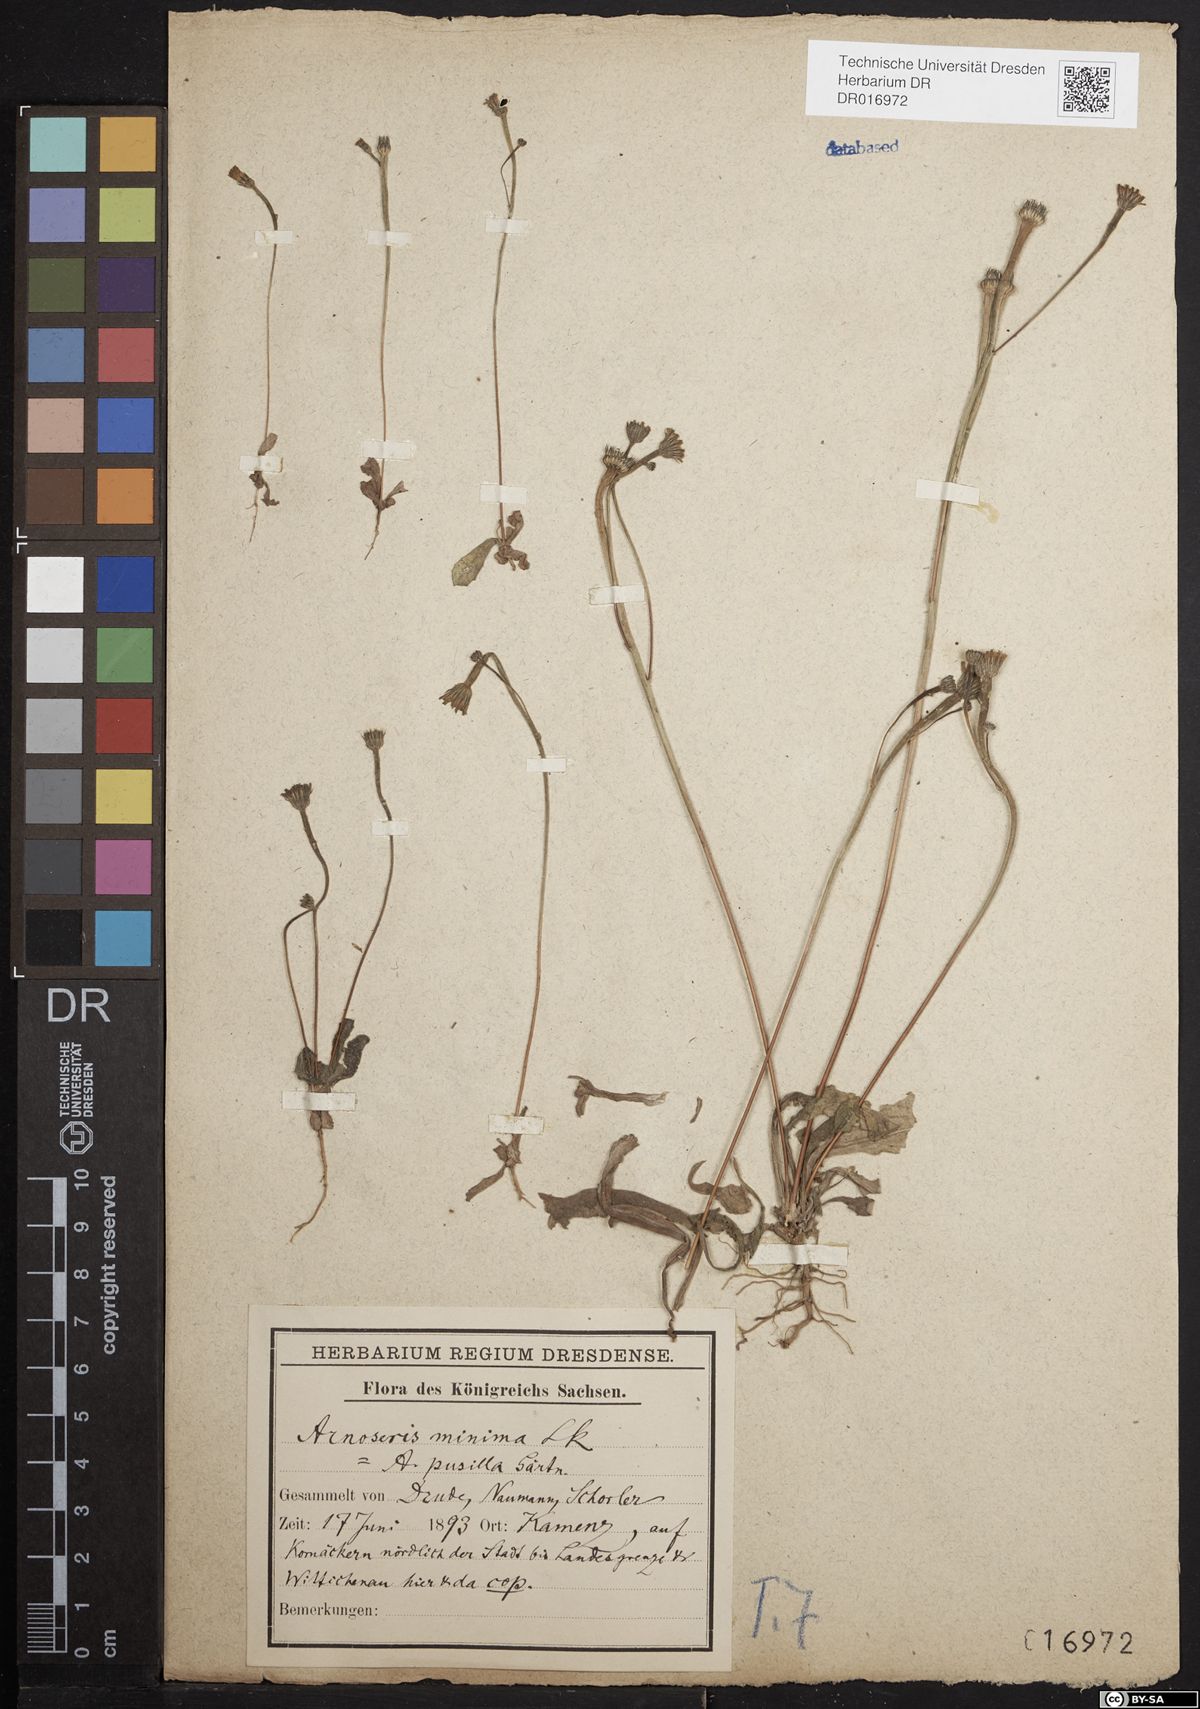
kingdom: Plantae
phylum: Tracheophyta
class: Magnoliopsida
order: Asterales
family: Asteraceae
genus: Arnoseris
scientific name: Arnoseris minima
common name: Lamb's succory
